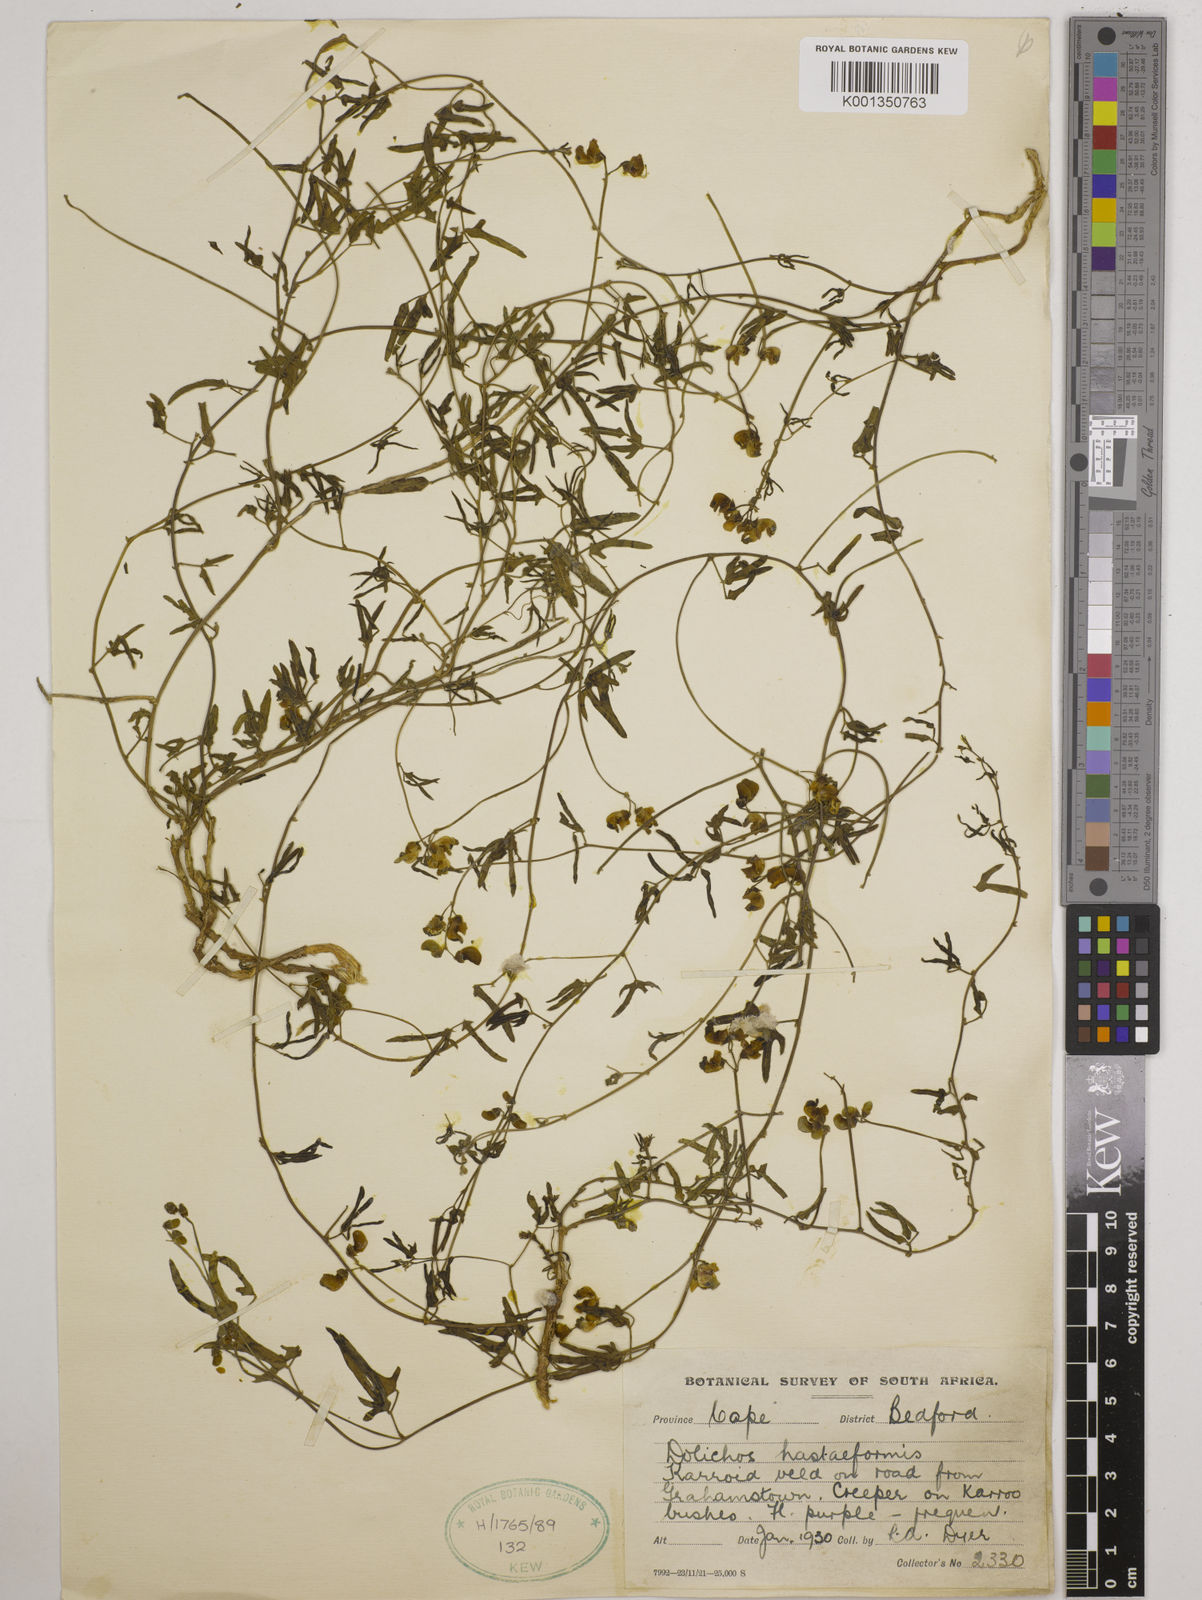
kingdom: Plantae
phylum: Tracheophyta
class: Magnoliopsida
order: Fabales
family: Fabaceae
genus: Dolichos
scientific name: Dolichos
